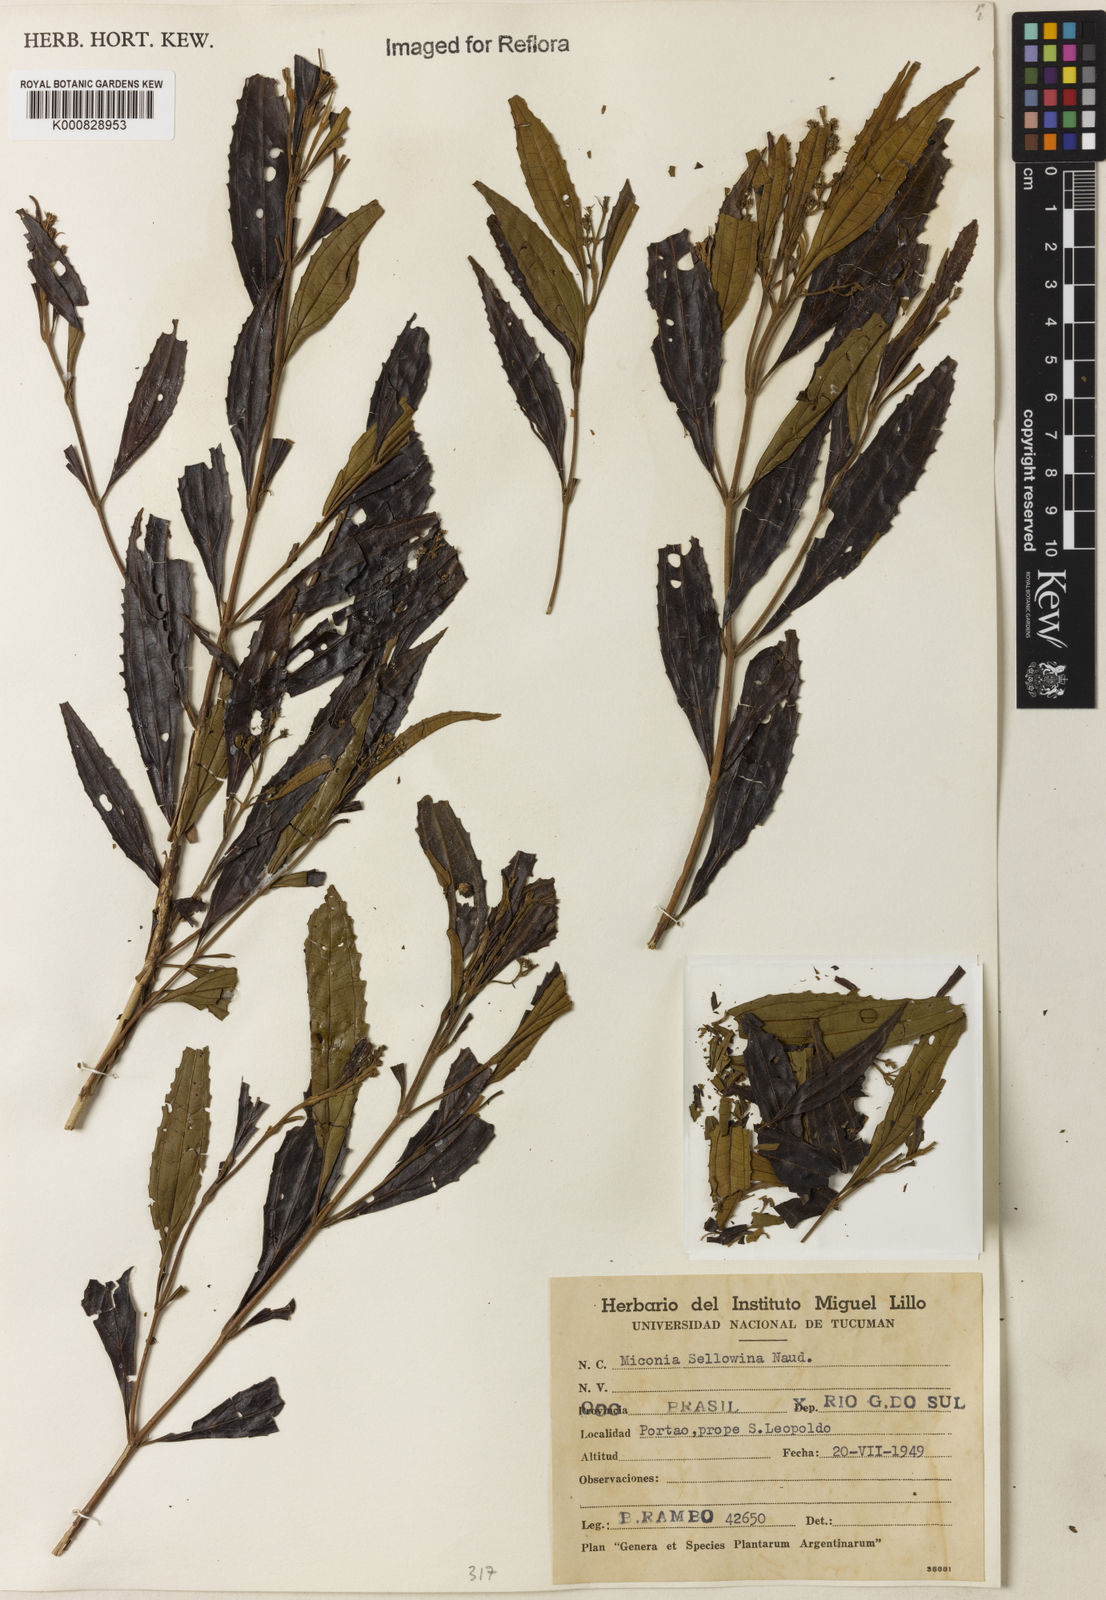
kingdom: Plantae
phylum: Tracheophyta
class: Magnoliopsida
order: Myrtales
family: Melastomataceae
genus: Miconia
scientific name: Miconia sellowiana
